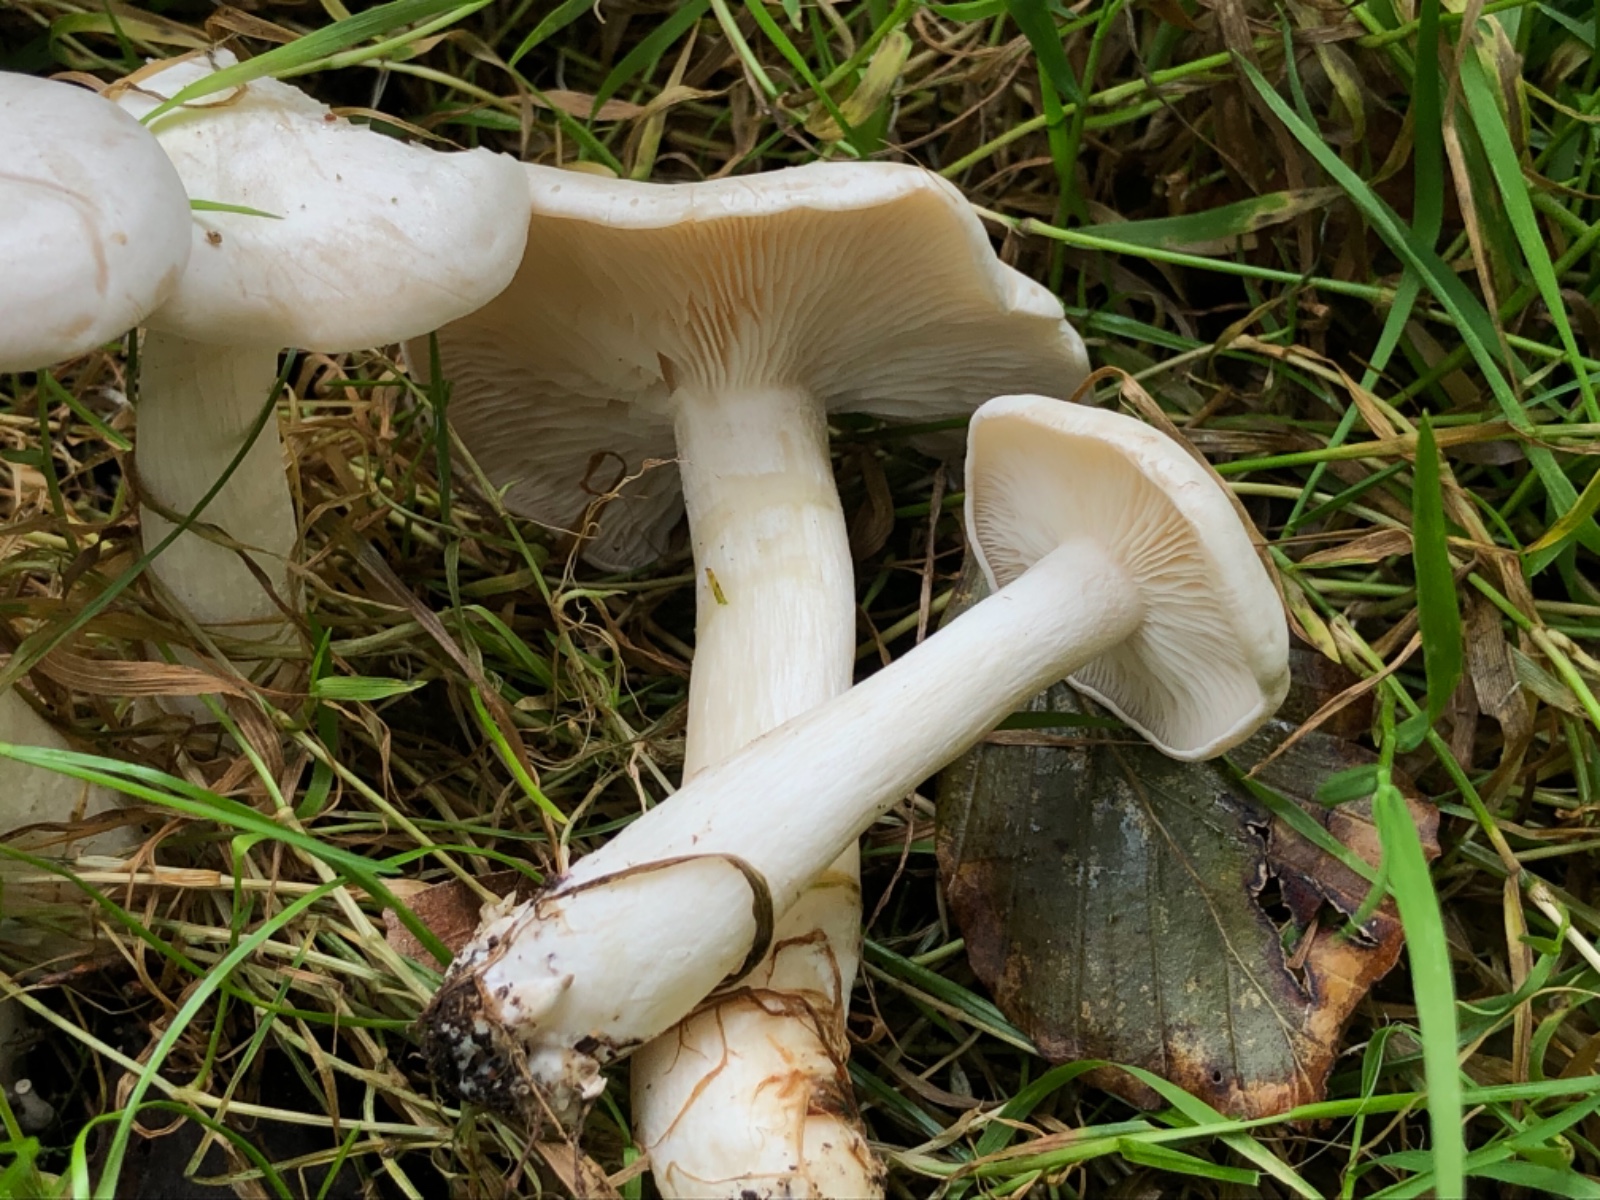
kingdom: Fungi
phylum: Basidiomycota
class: Agaricomycetes
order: Agaricales
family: Tricholomataceae
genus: Leucocybe
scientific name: Leucocybe connata
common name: knippe-tragthat
